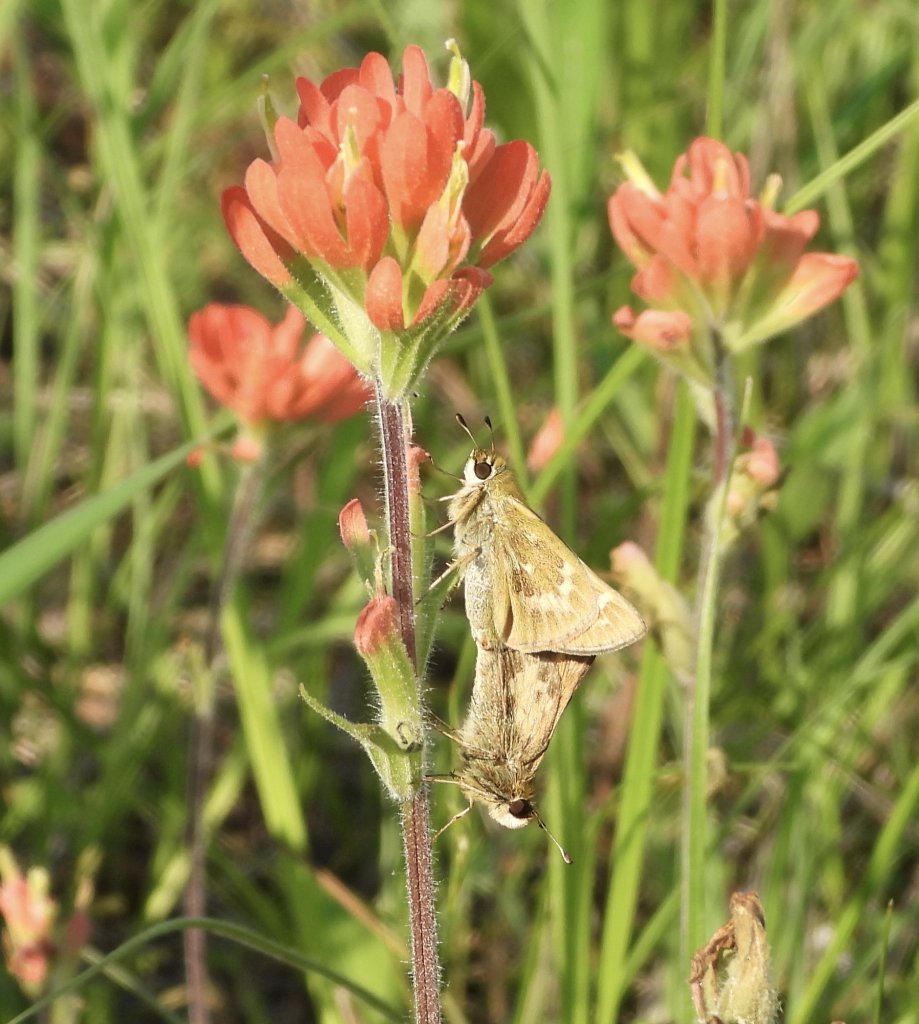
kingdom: Animalia
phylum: Arthropoda
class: Insecta
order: Lepidoptera
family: Hesperiidae
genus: Atalopedes
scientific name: Atalopedes campestris
